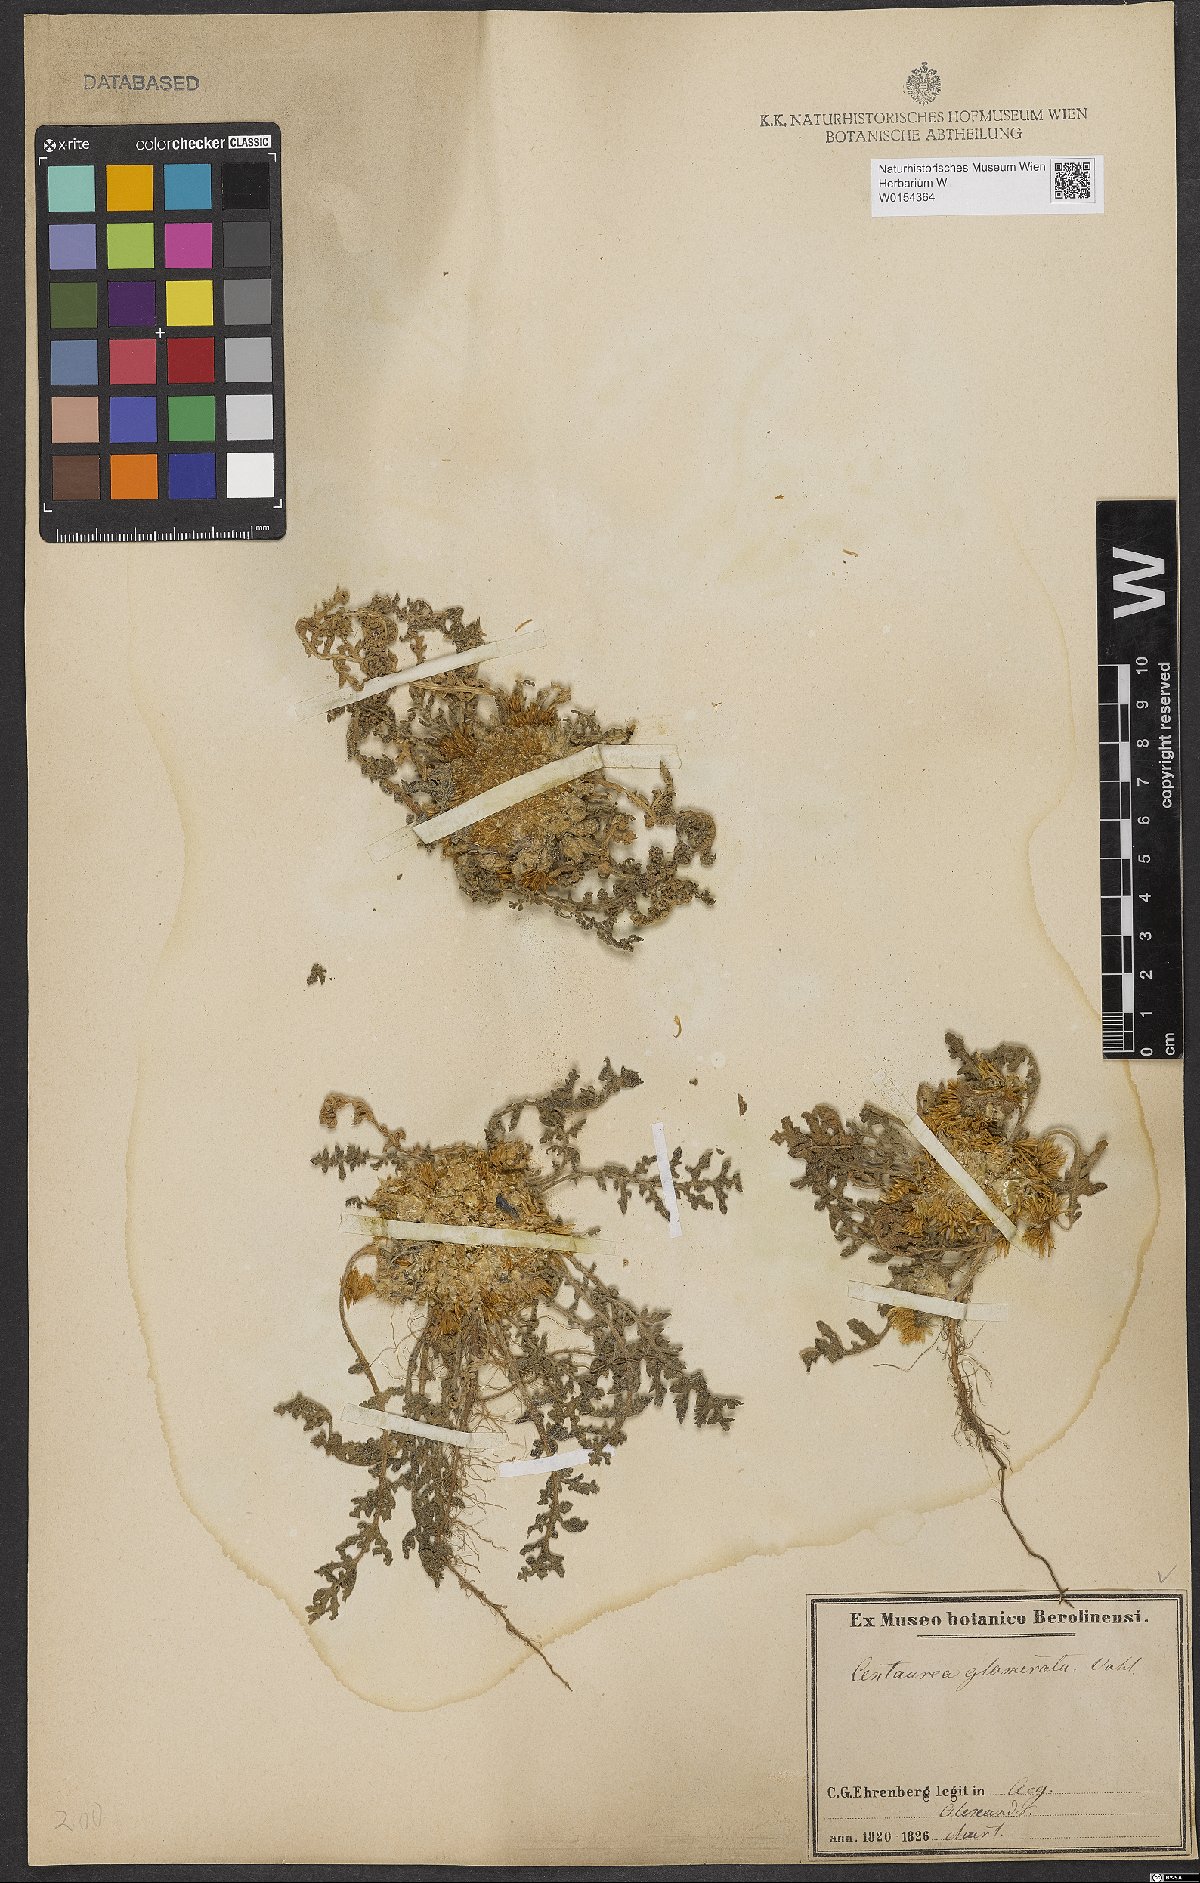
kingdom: Plantae
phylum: Tracheophyta
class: Magnoliopsida
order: Asterales
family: Asteraceae
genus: Centaurea
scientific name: Centaurea glomerata
